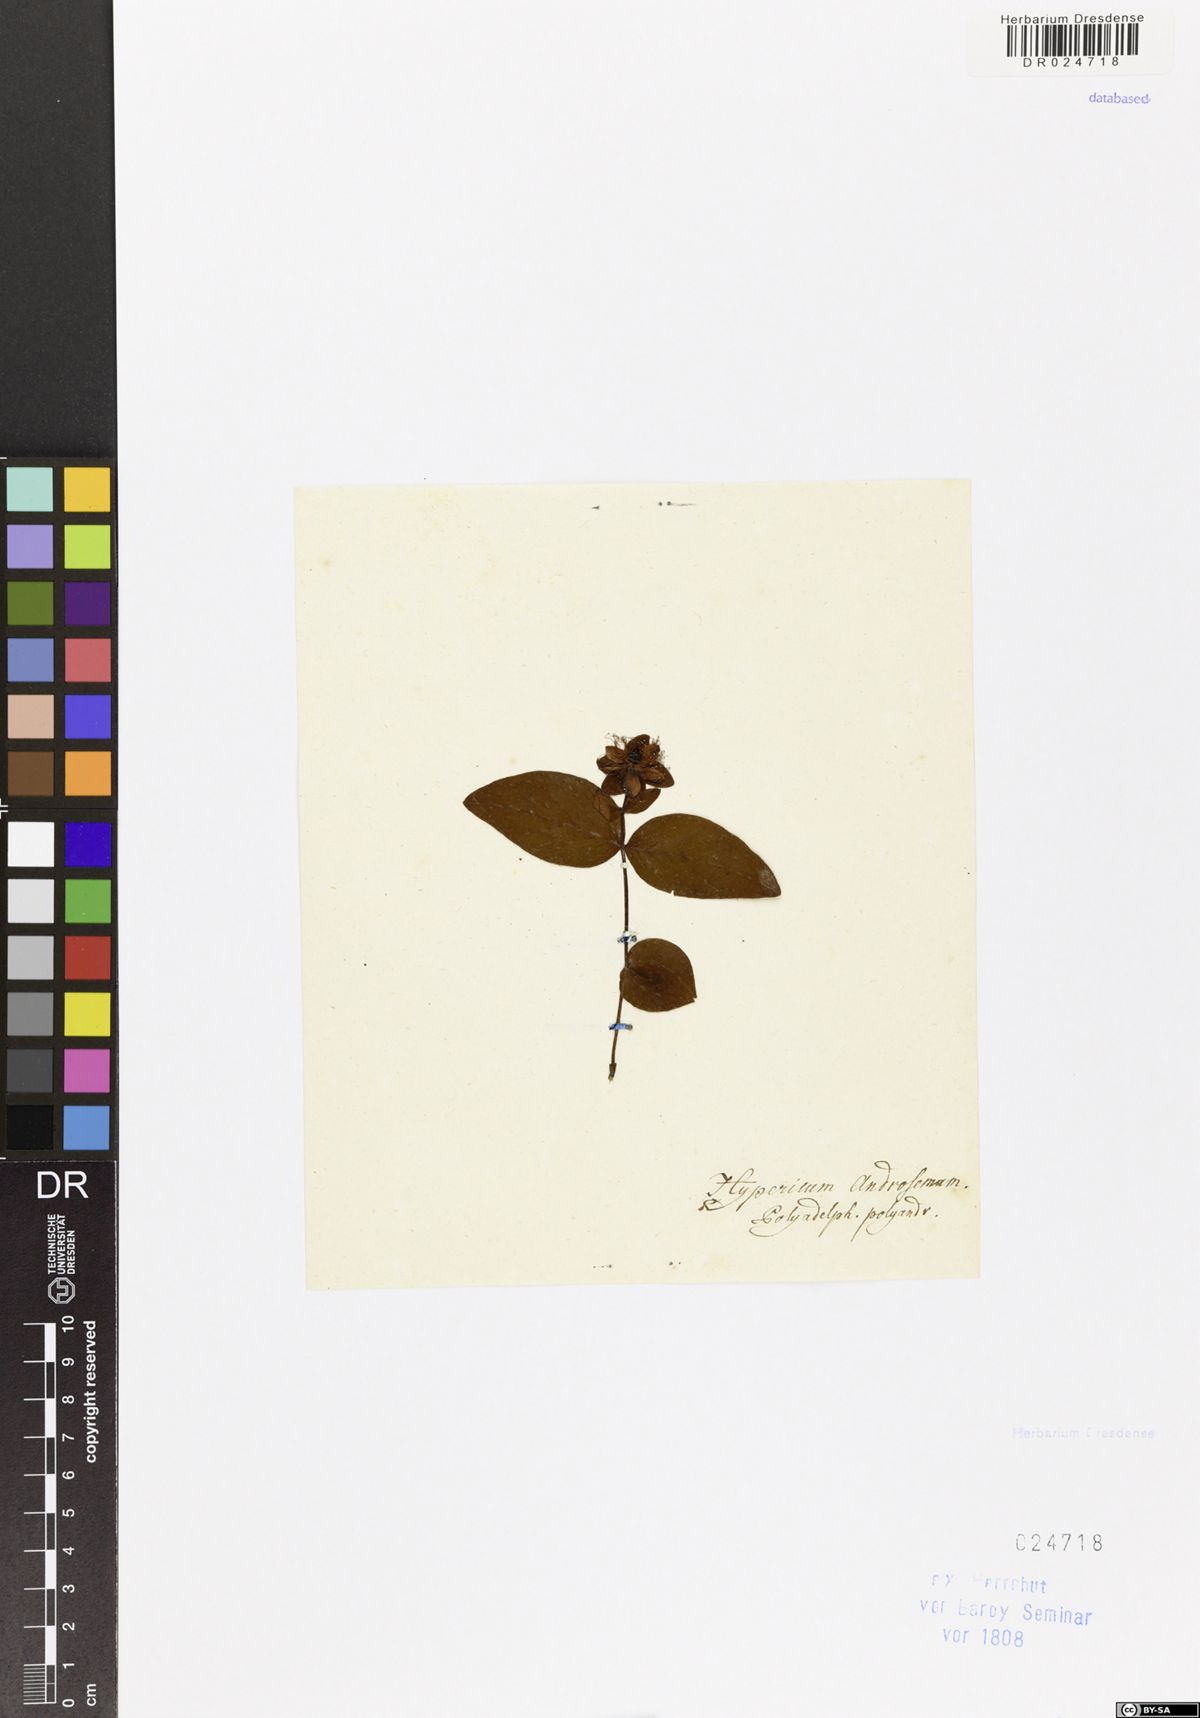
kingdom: Plantae
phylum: Tracheophyta
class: Magnoliopsida
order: Malpighiales
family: Hypericaceae
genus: Hypericum
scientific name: Hypericum androsaemum
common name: Sweet-amber
